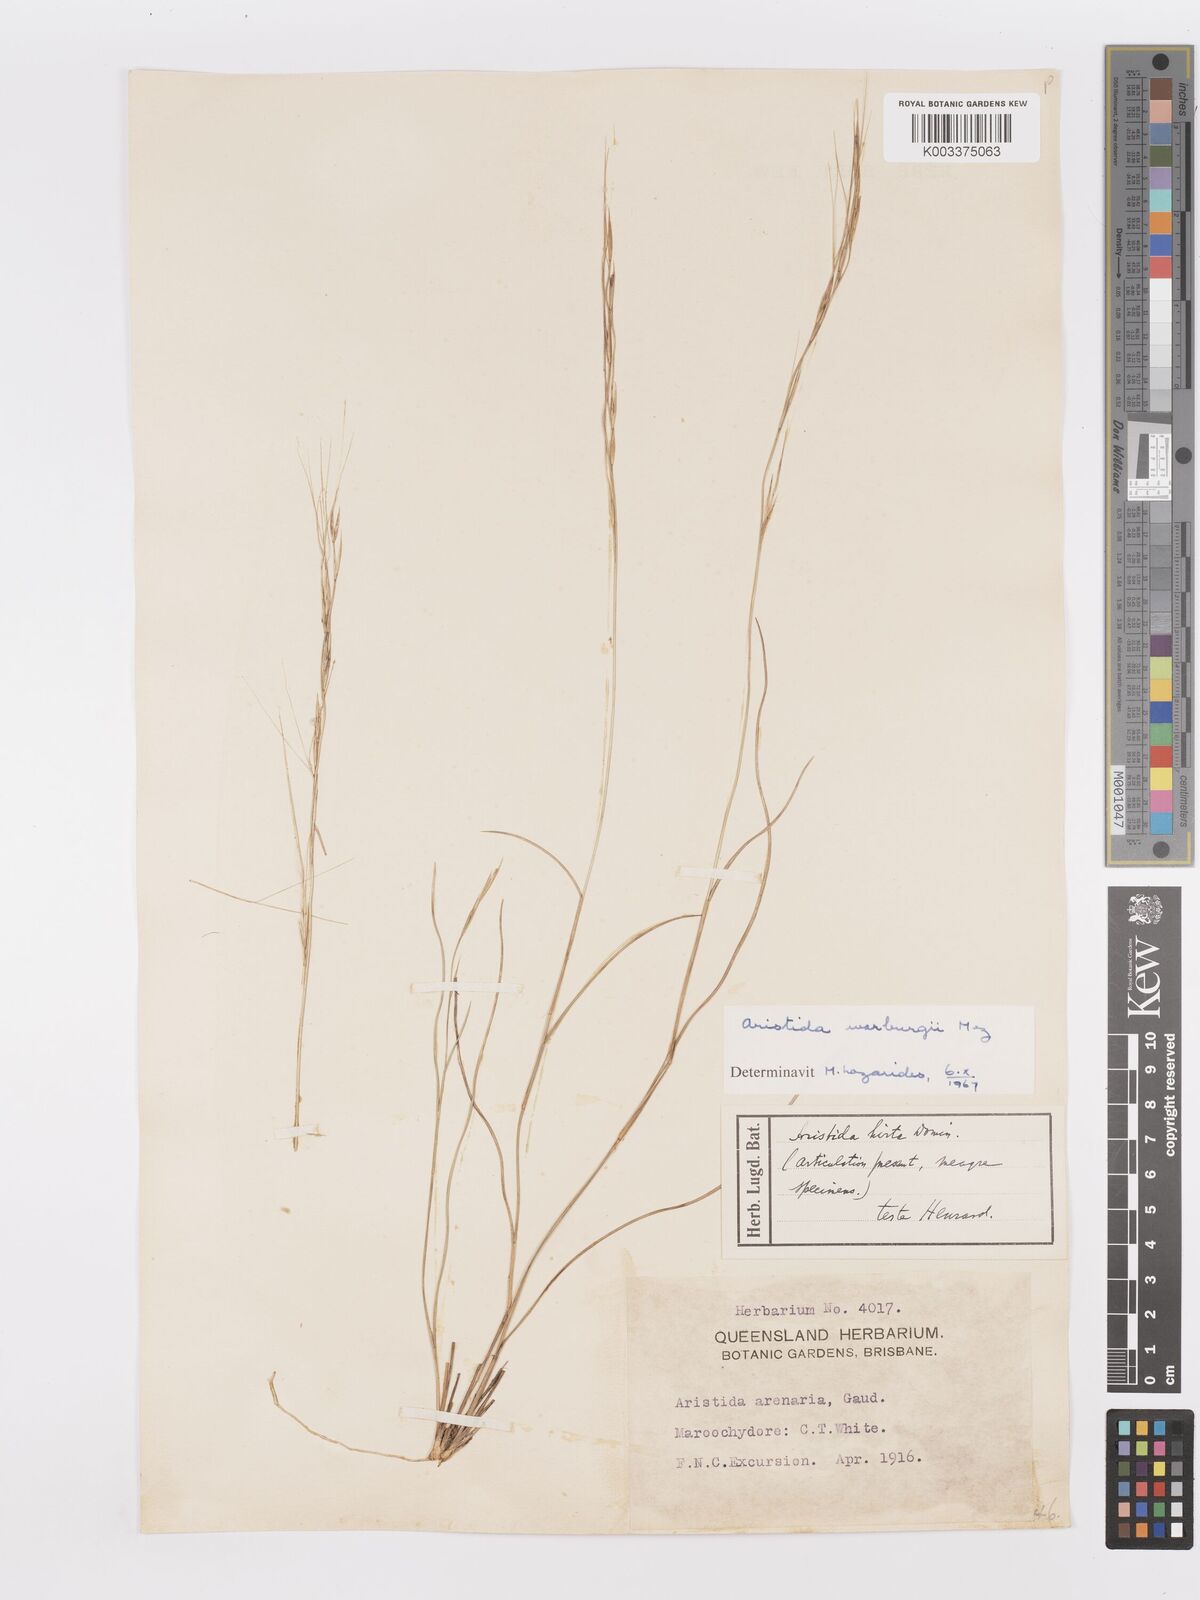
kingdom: Plantae
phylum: Tracheophyta
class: Liliopsida
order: Poales
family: Poaceae
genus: Aristida
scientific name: Aristida warburgii
